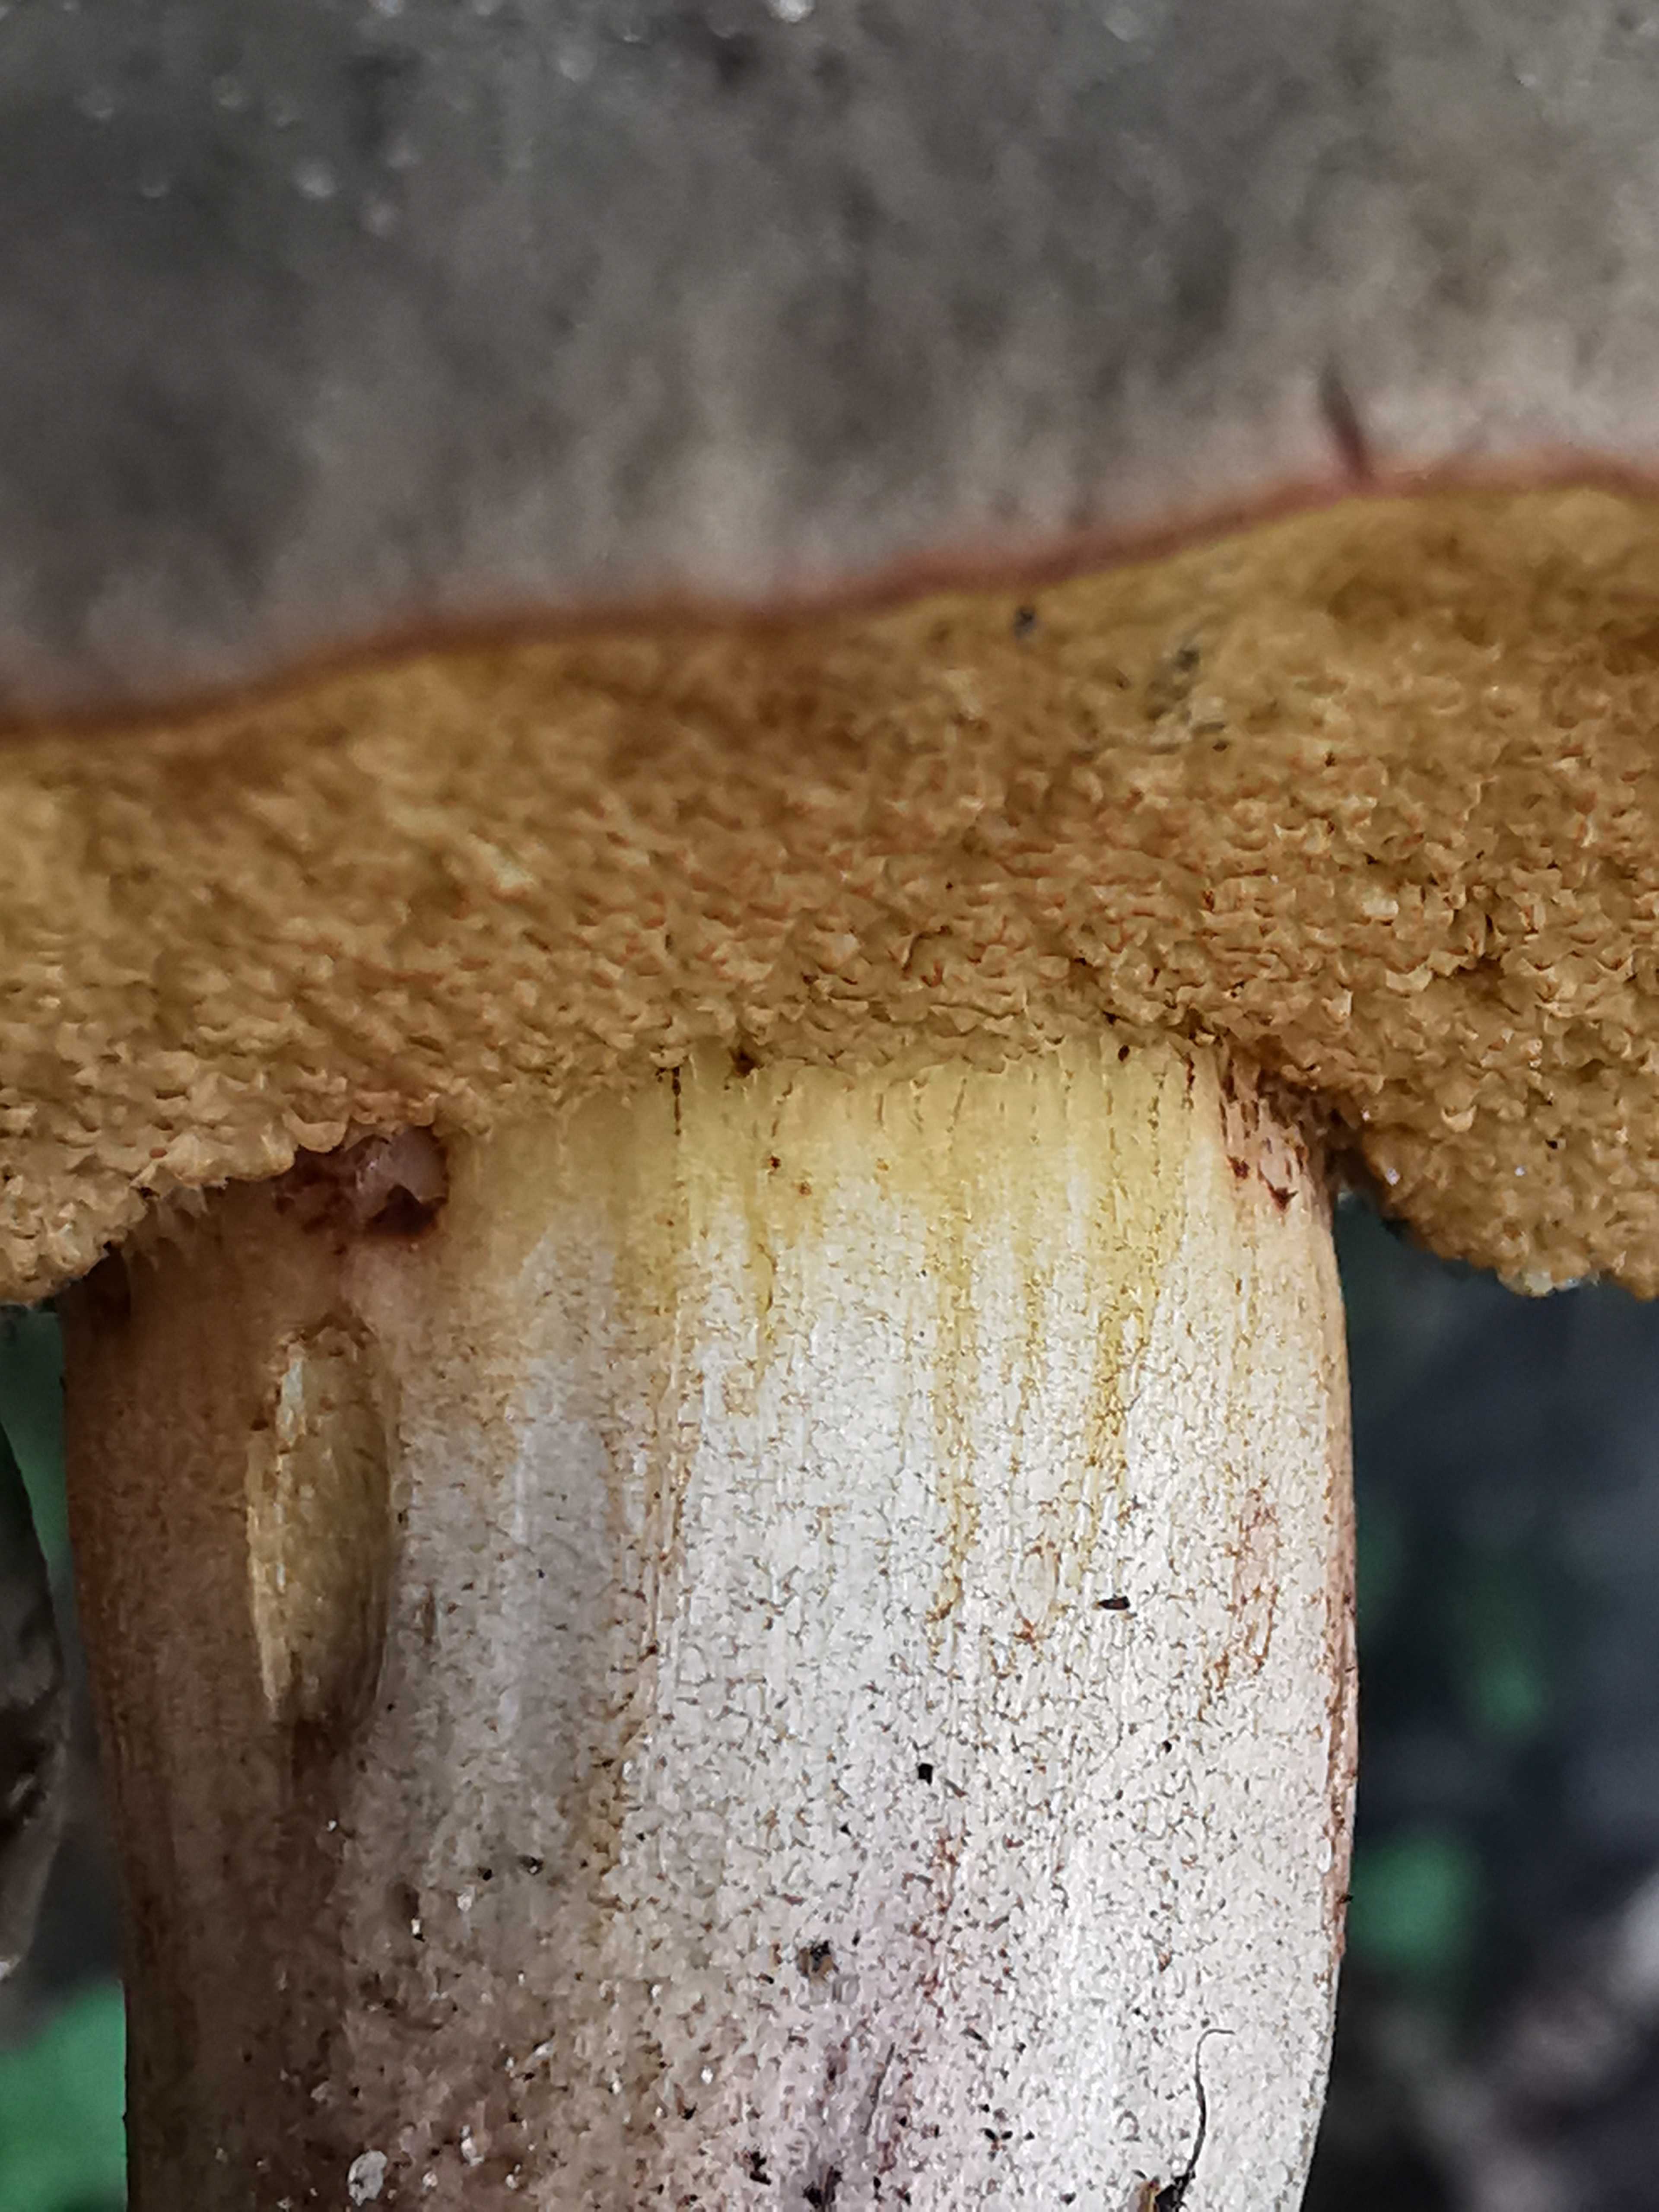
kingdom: Fungi
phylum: Basidiomycota
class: Agaricomycetes
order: Boletales
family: Boletaceae
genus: Xerocomellus
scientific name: Xerocomellus
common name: dværgrørhat
